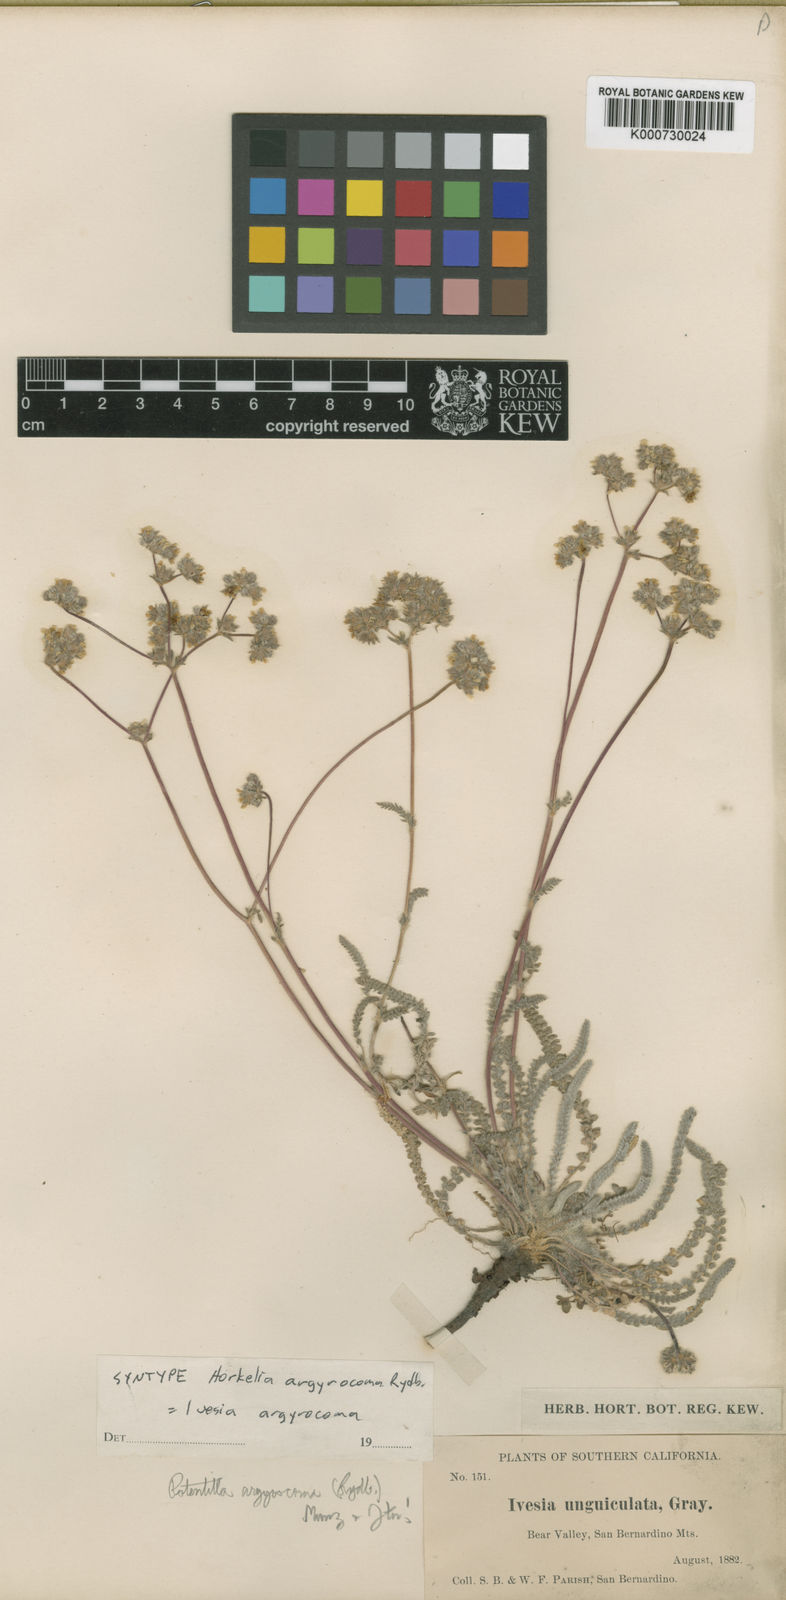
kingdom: Plantae
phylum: Tracheophyta
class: Magnoliopsida
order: Rosales
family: Rosaceae
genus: Potentilla
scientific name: Potentilla argyrocoma
